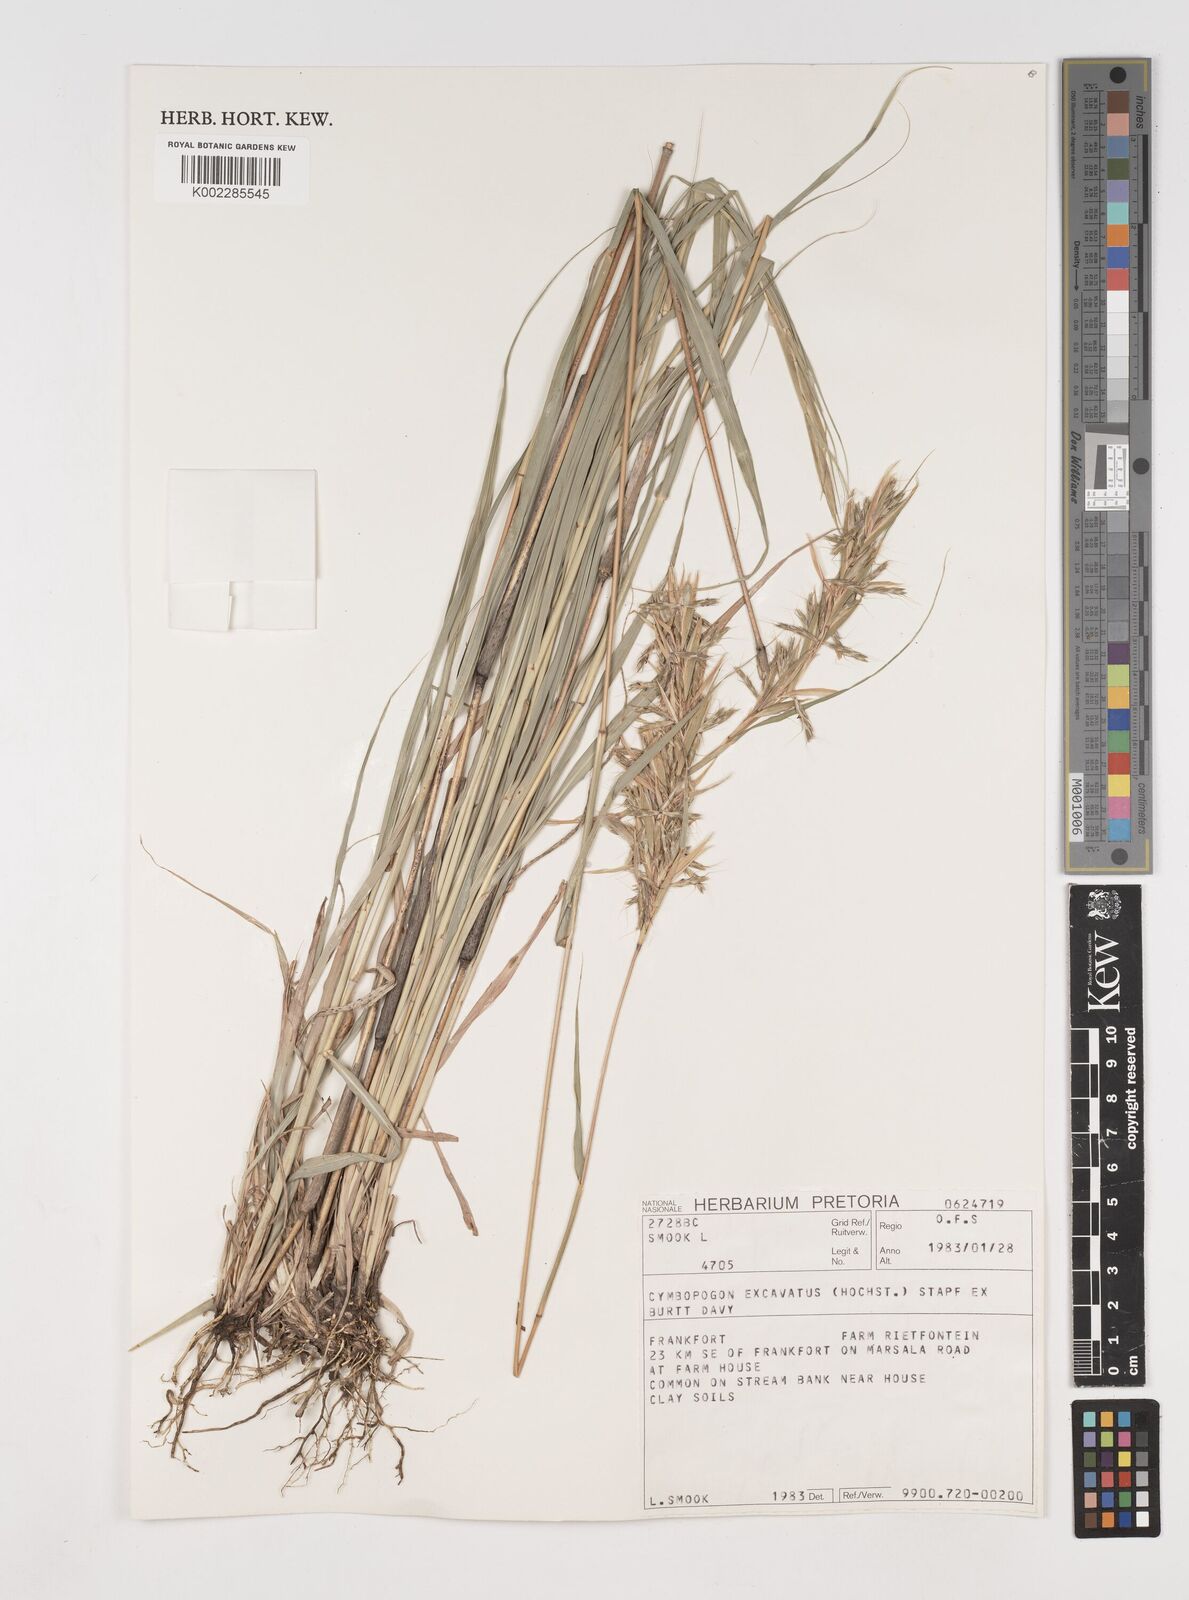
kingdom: Plantae
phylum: Tracheophyta
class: Liliopsida
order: Poales
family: Poaceae
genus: Cymbopogon
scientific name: Cymbopogon caesius
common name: Kachi grass
